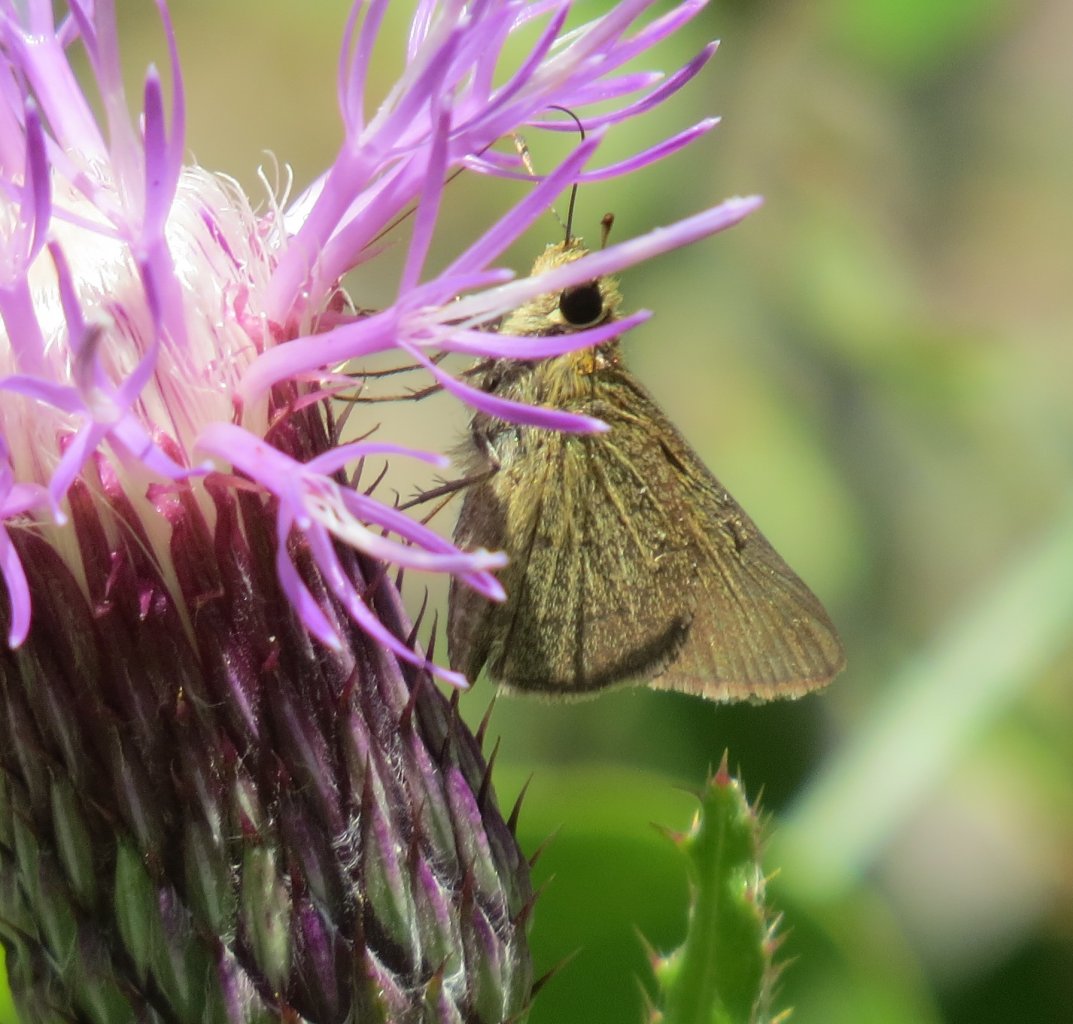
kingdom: Animalia
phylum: Arthropoda
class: Insecta
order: Lepidoptera
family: Hesperiidae
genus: Nastra
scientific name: Nastra lherminier
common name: Swarthy Skipper
